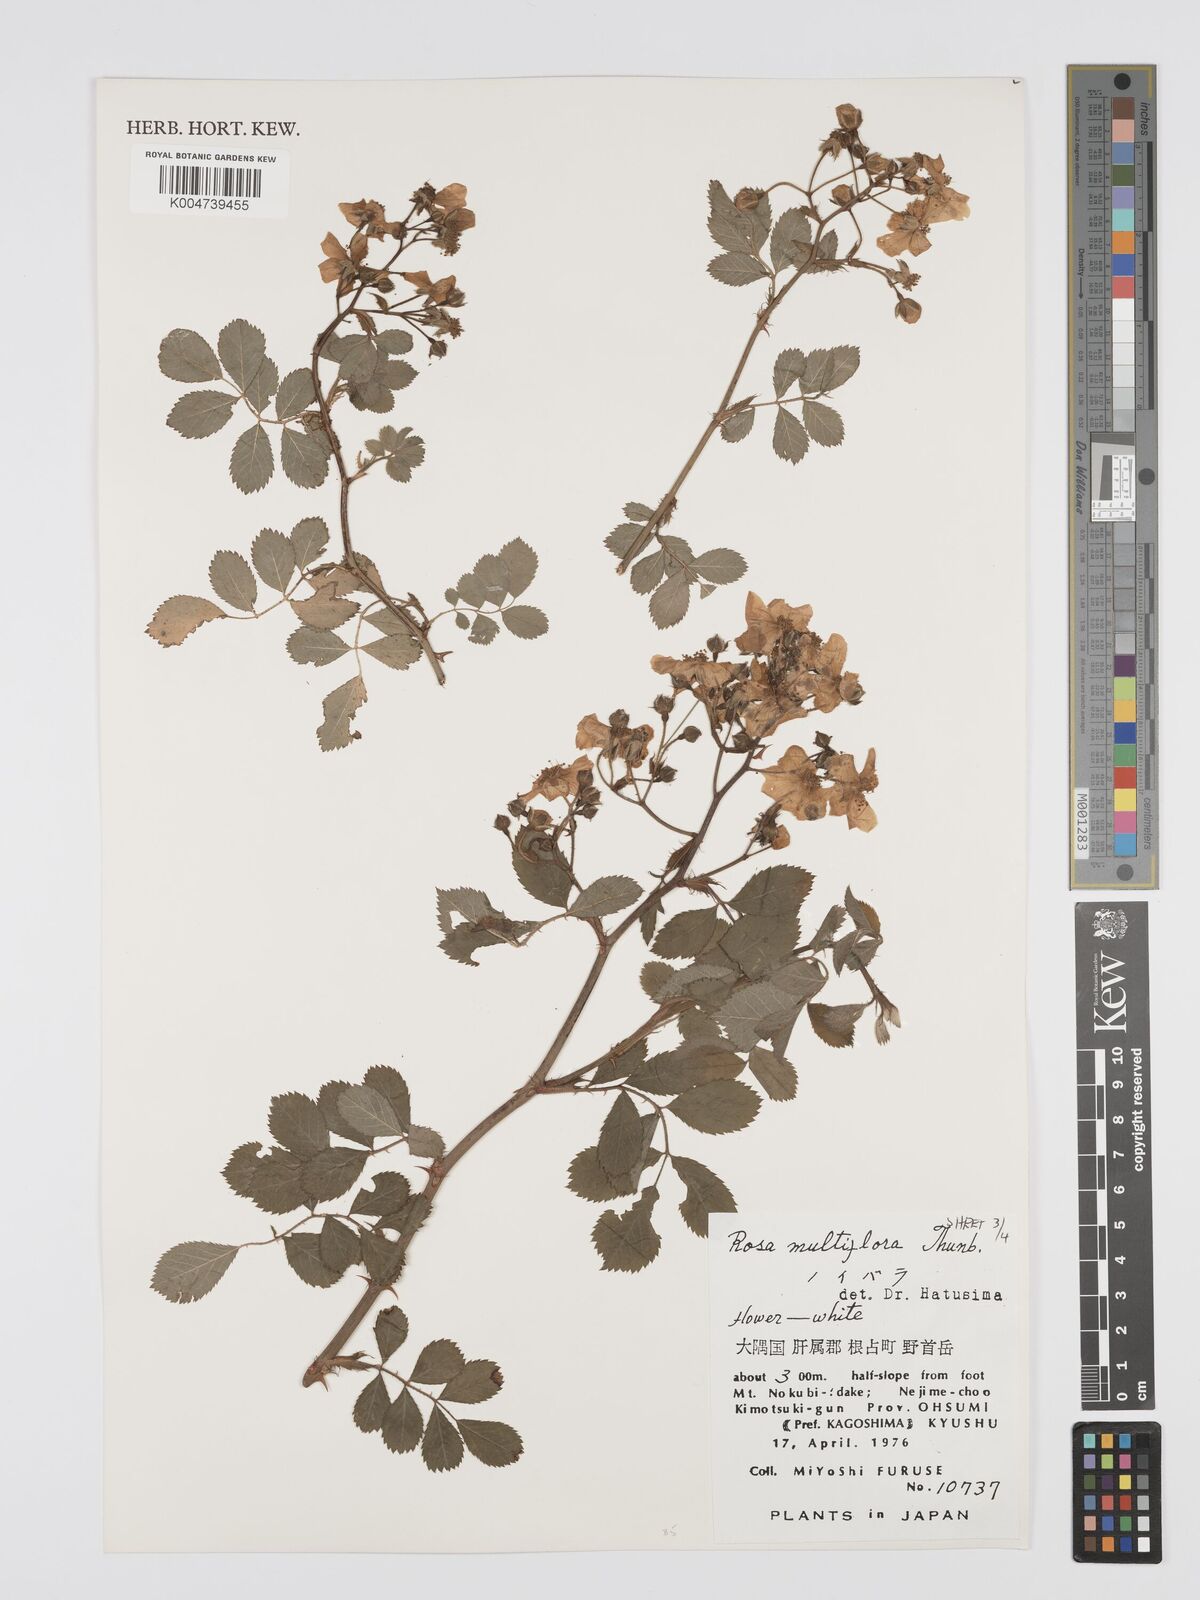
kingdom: Plantae
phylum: Tracheophyta
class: Magnoliopsida
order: Rosales
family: Rosaceae
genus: Rosa
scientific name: Rosa
